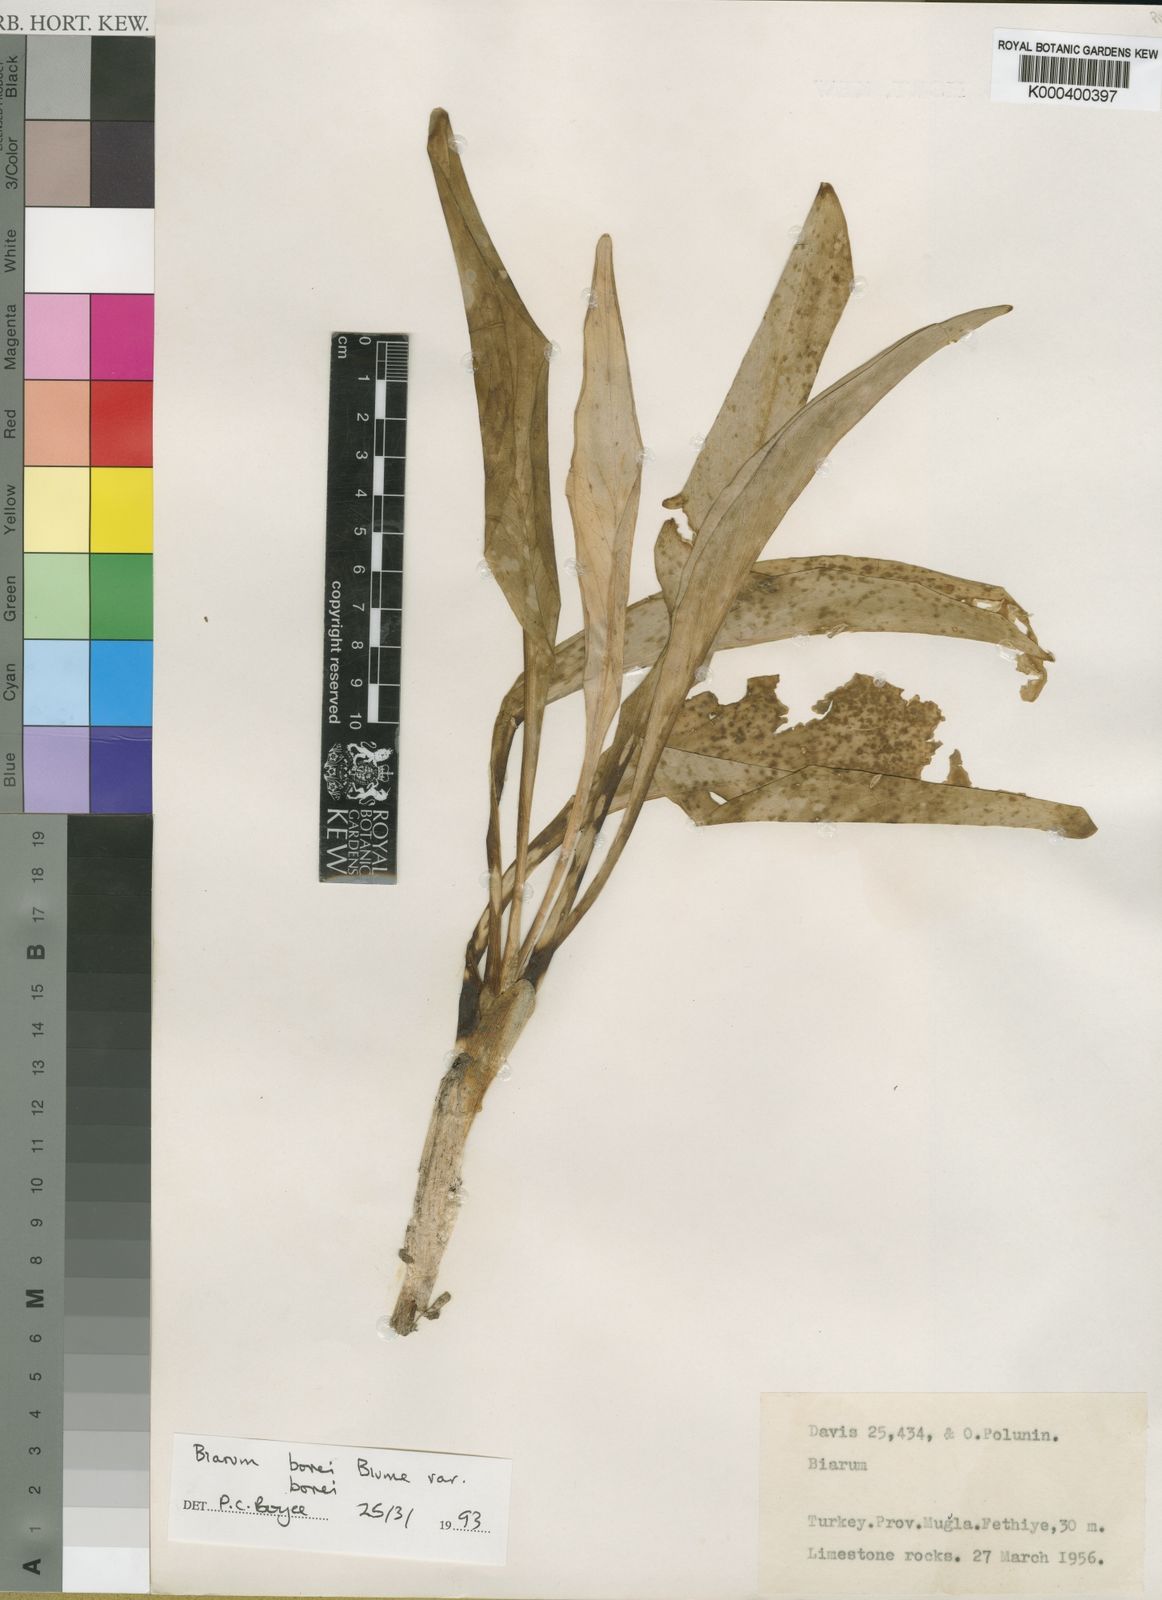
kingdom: Plantae
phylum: Tracheophyta
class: Liliopsida
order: Alismatales
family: Araceae
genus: Biarum
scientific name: Biarum bovei
